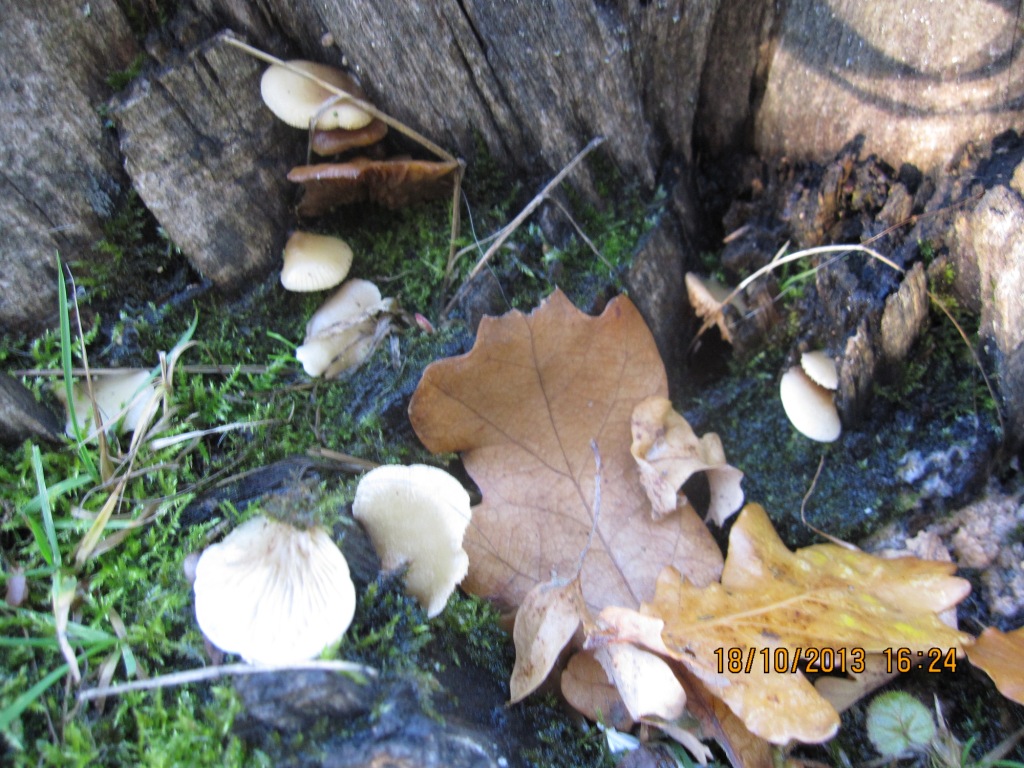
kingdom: Fungi
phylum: Basidiomycota
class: Agaricomycetes
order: Agaricales
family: Crepidotaceae
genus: Crepidotus
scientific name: Crepidotus mollis
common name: blød muslingesvamp
